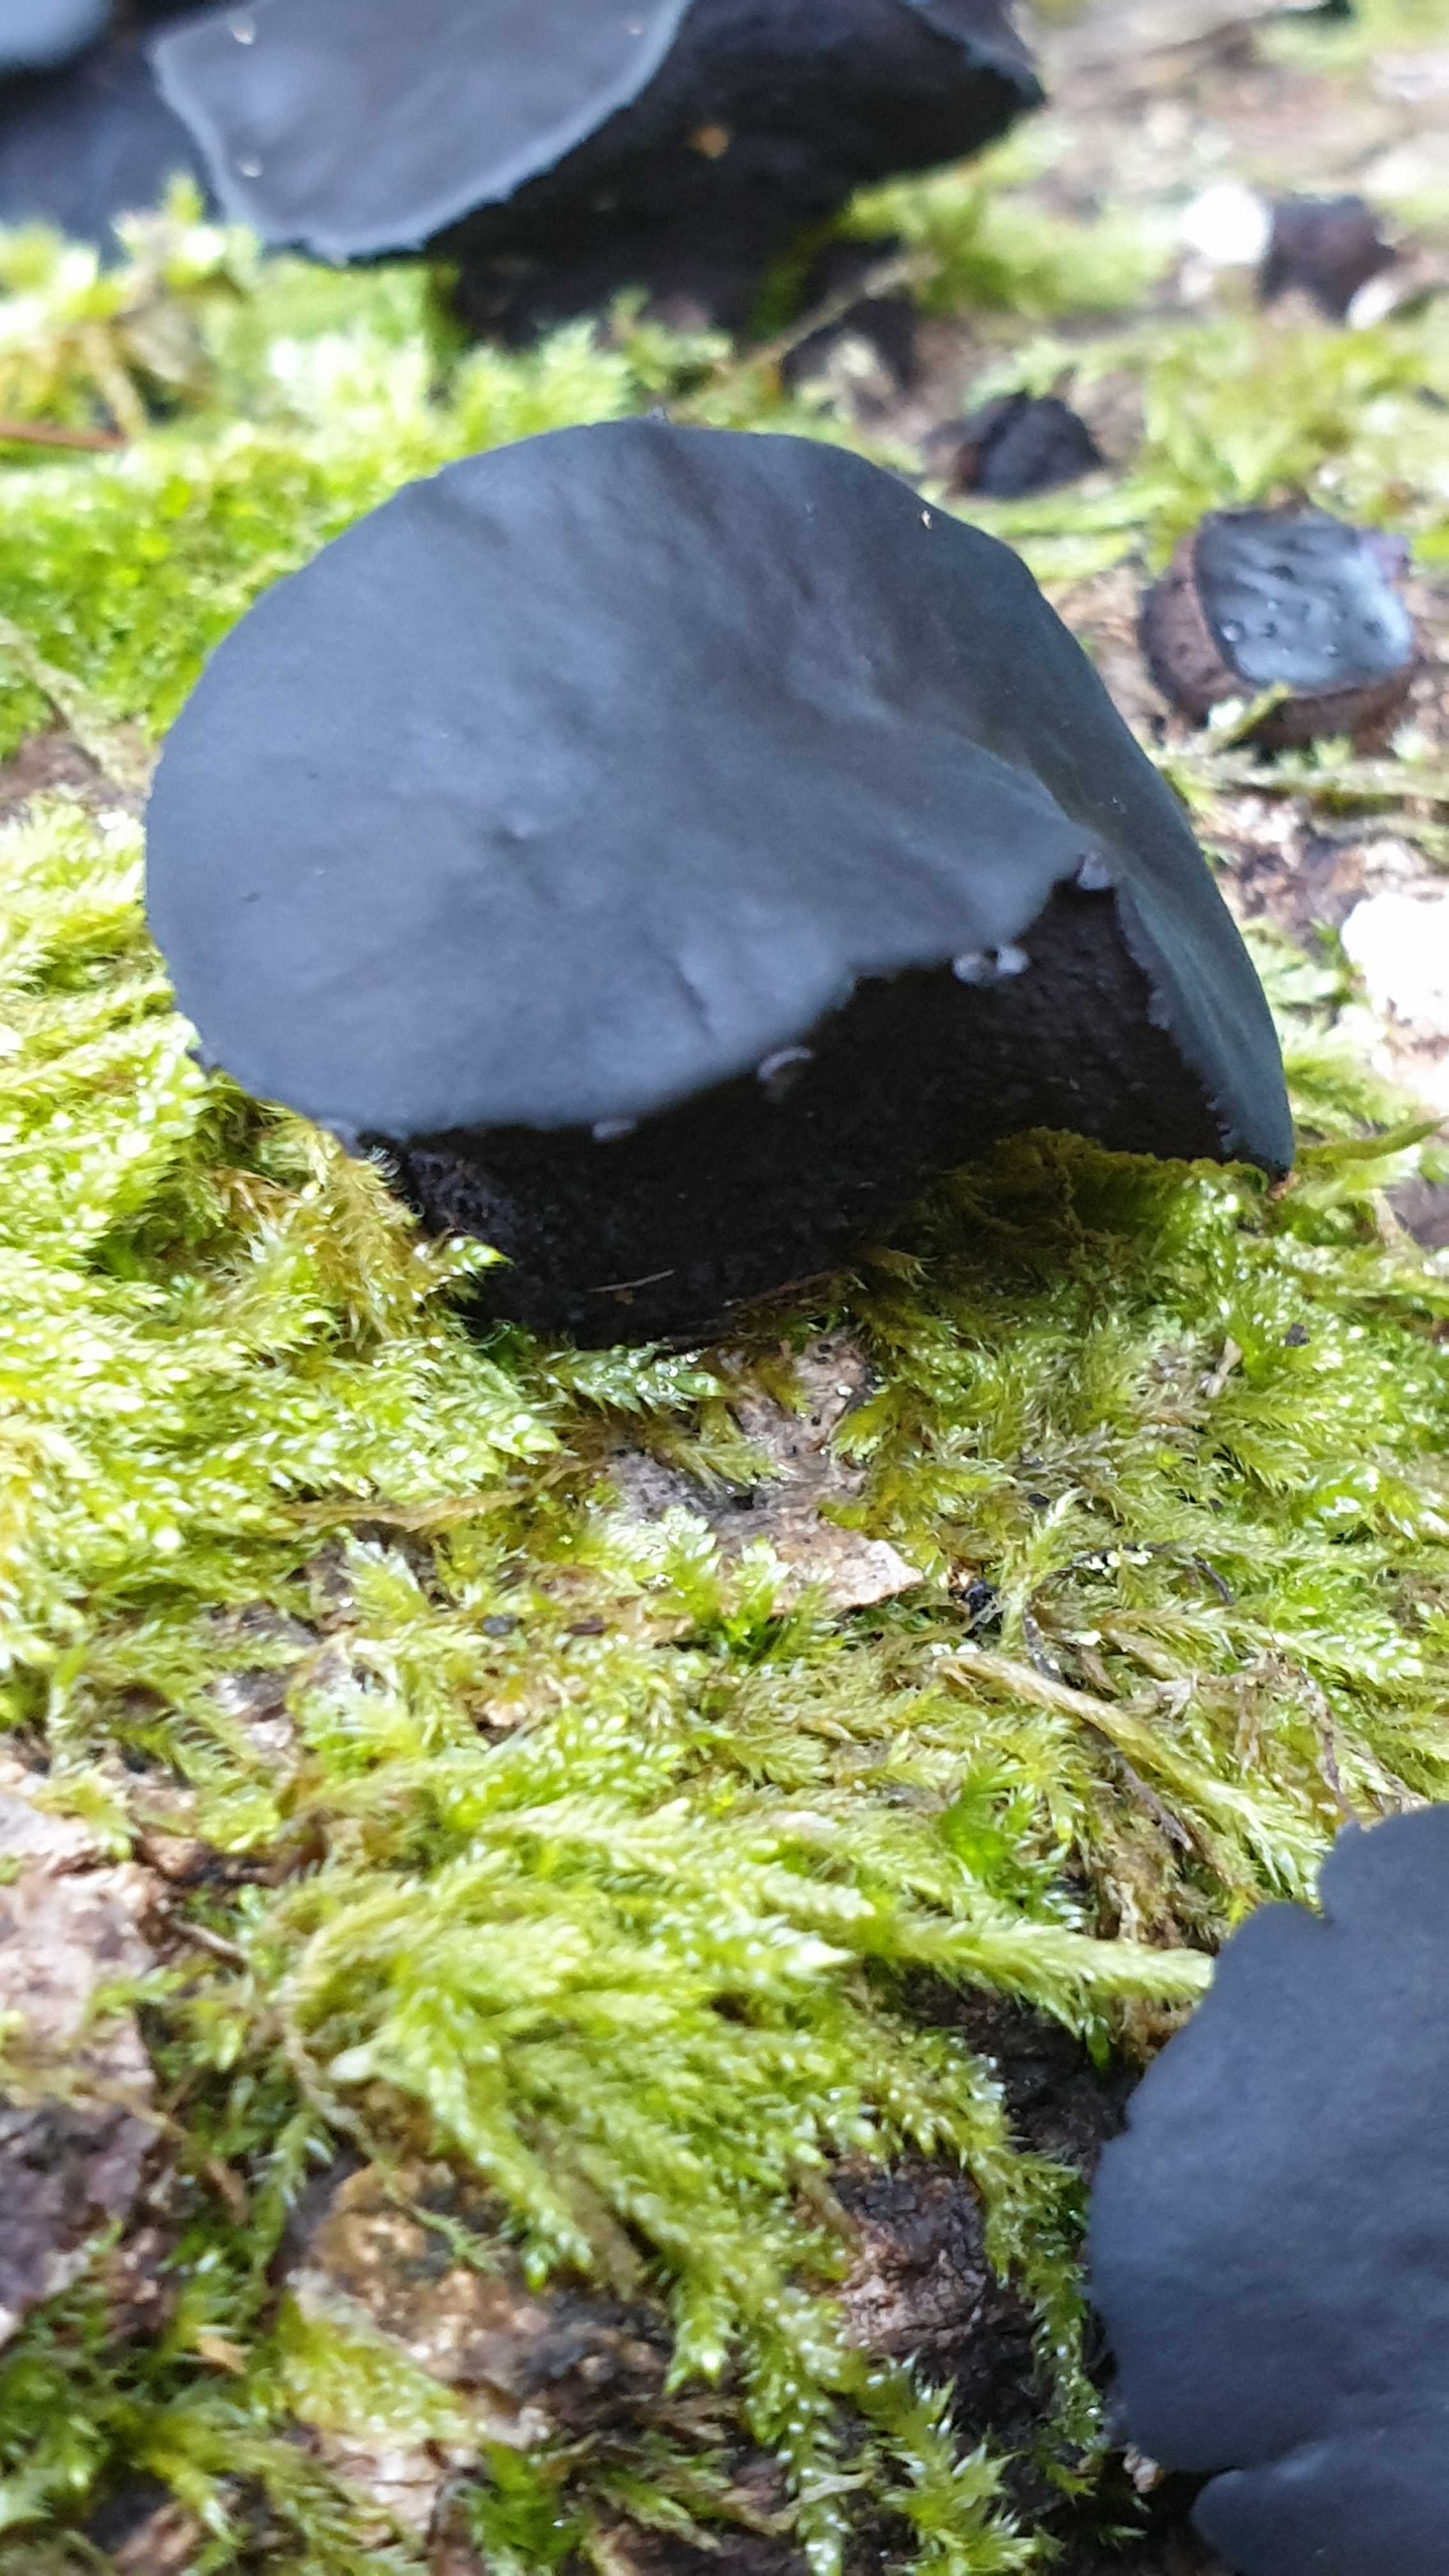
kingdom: Fungi
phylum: Ascomycota
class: Leotiomycetes
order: Phacidiales
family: Phacidiaceae
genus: Bulgaria
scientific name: Bulgaria inquinans
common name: afsmittende topsvamp
